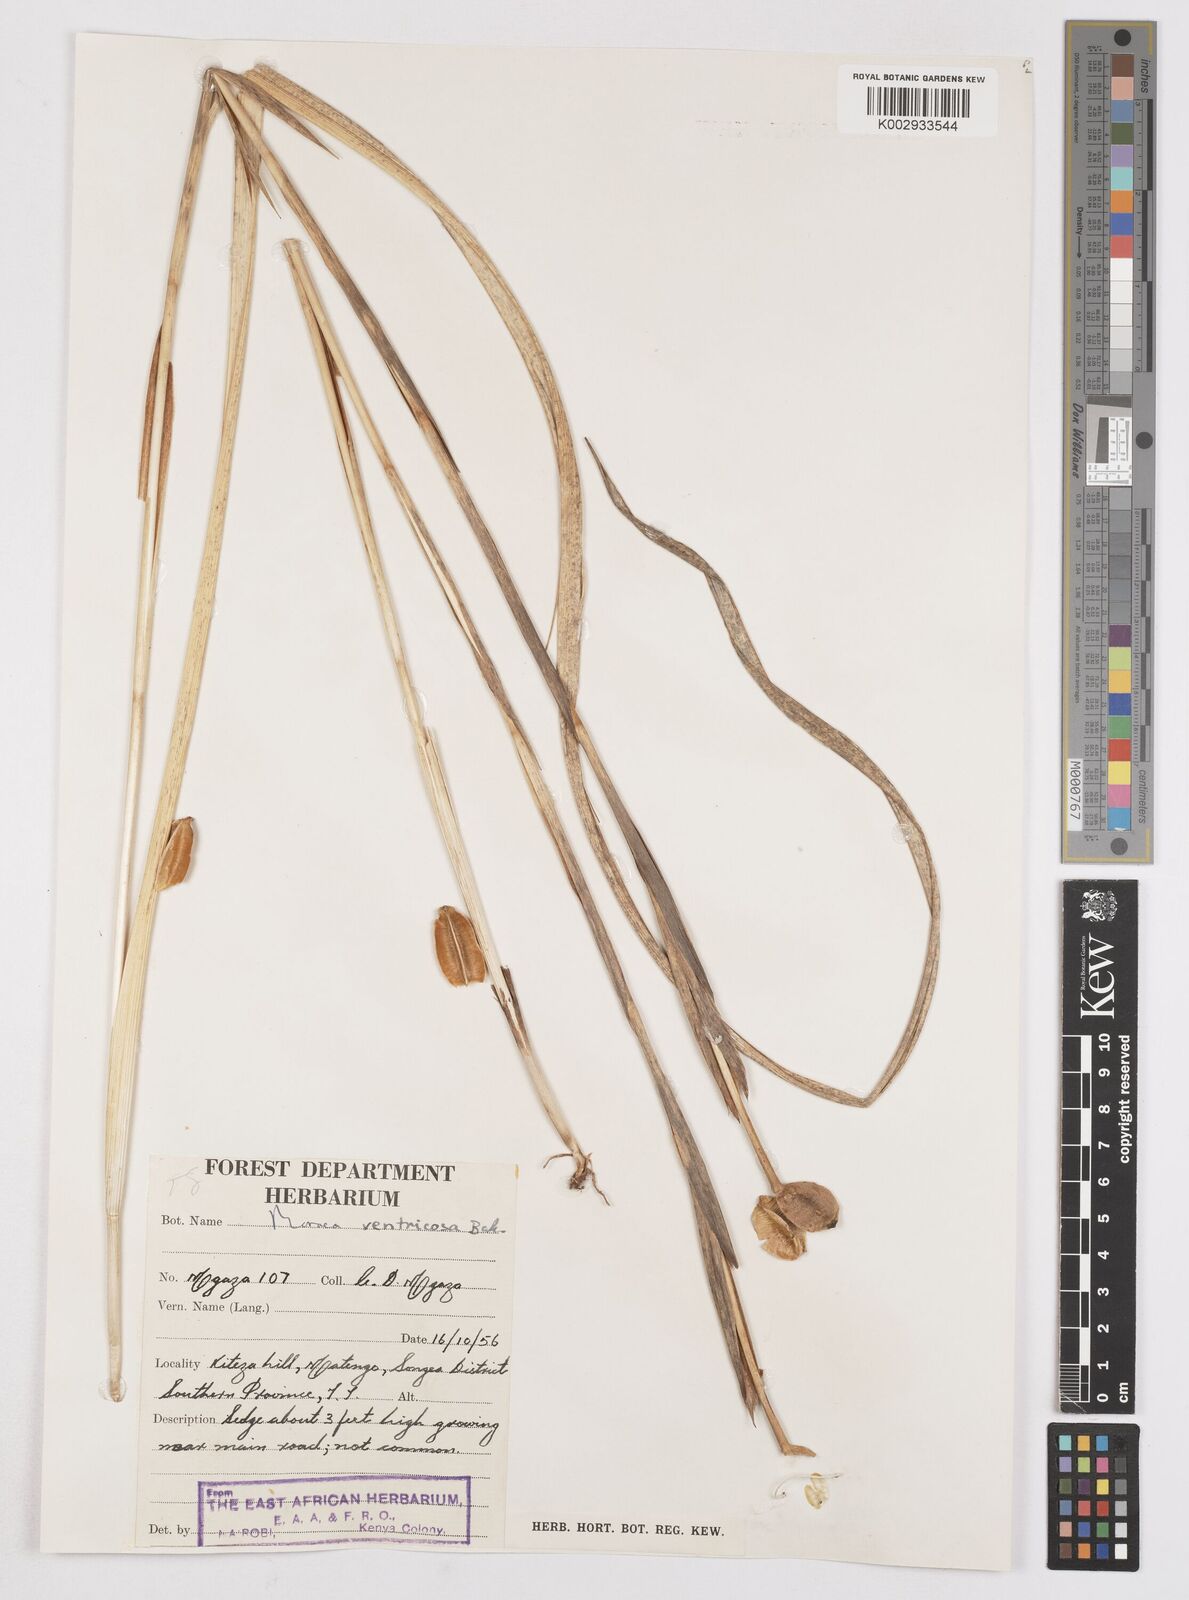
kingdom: Plantae
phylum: Tracheophyta
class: Liliopsida
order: Asparagales
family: Iridaceae
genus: Moraea
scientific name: Moraea verdickii
